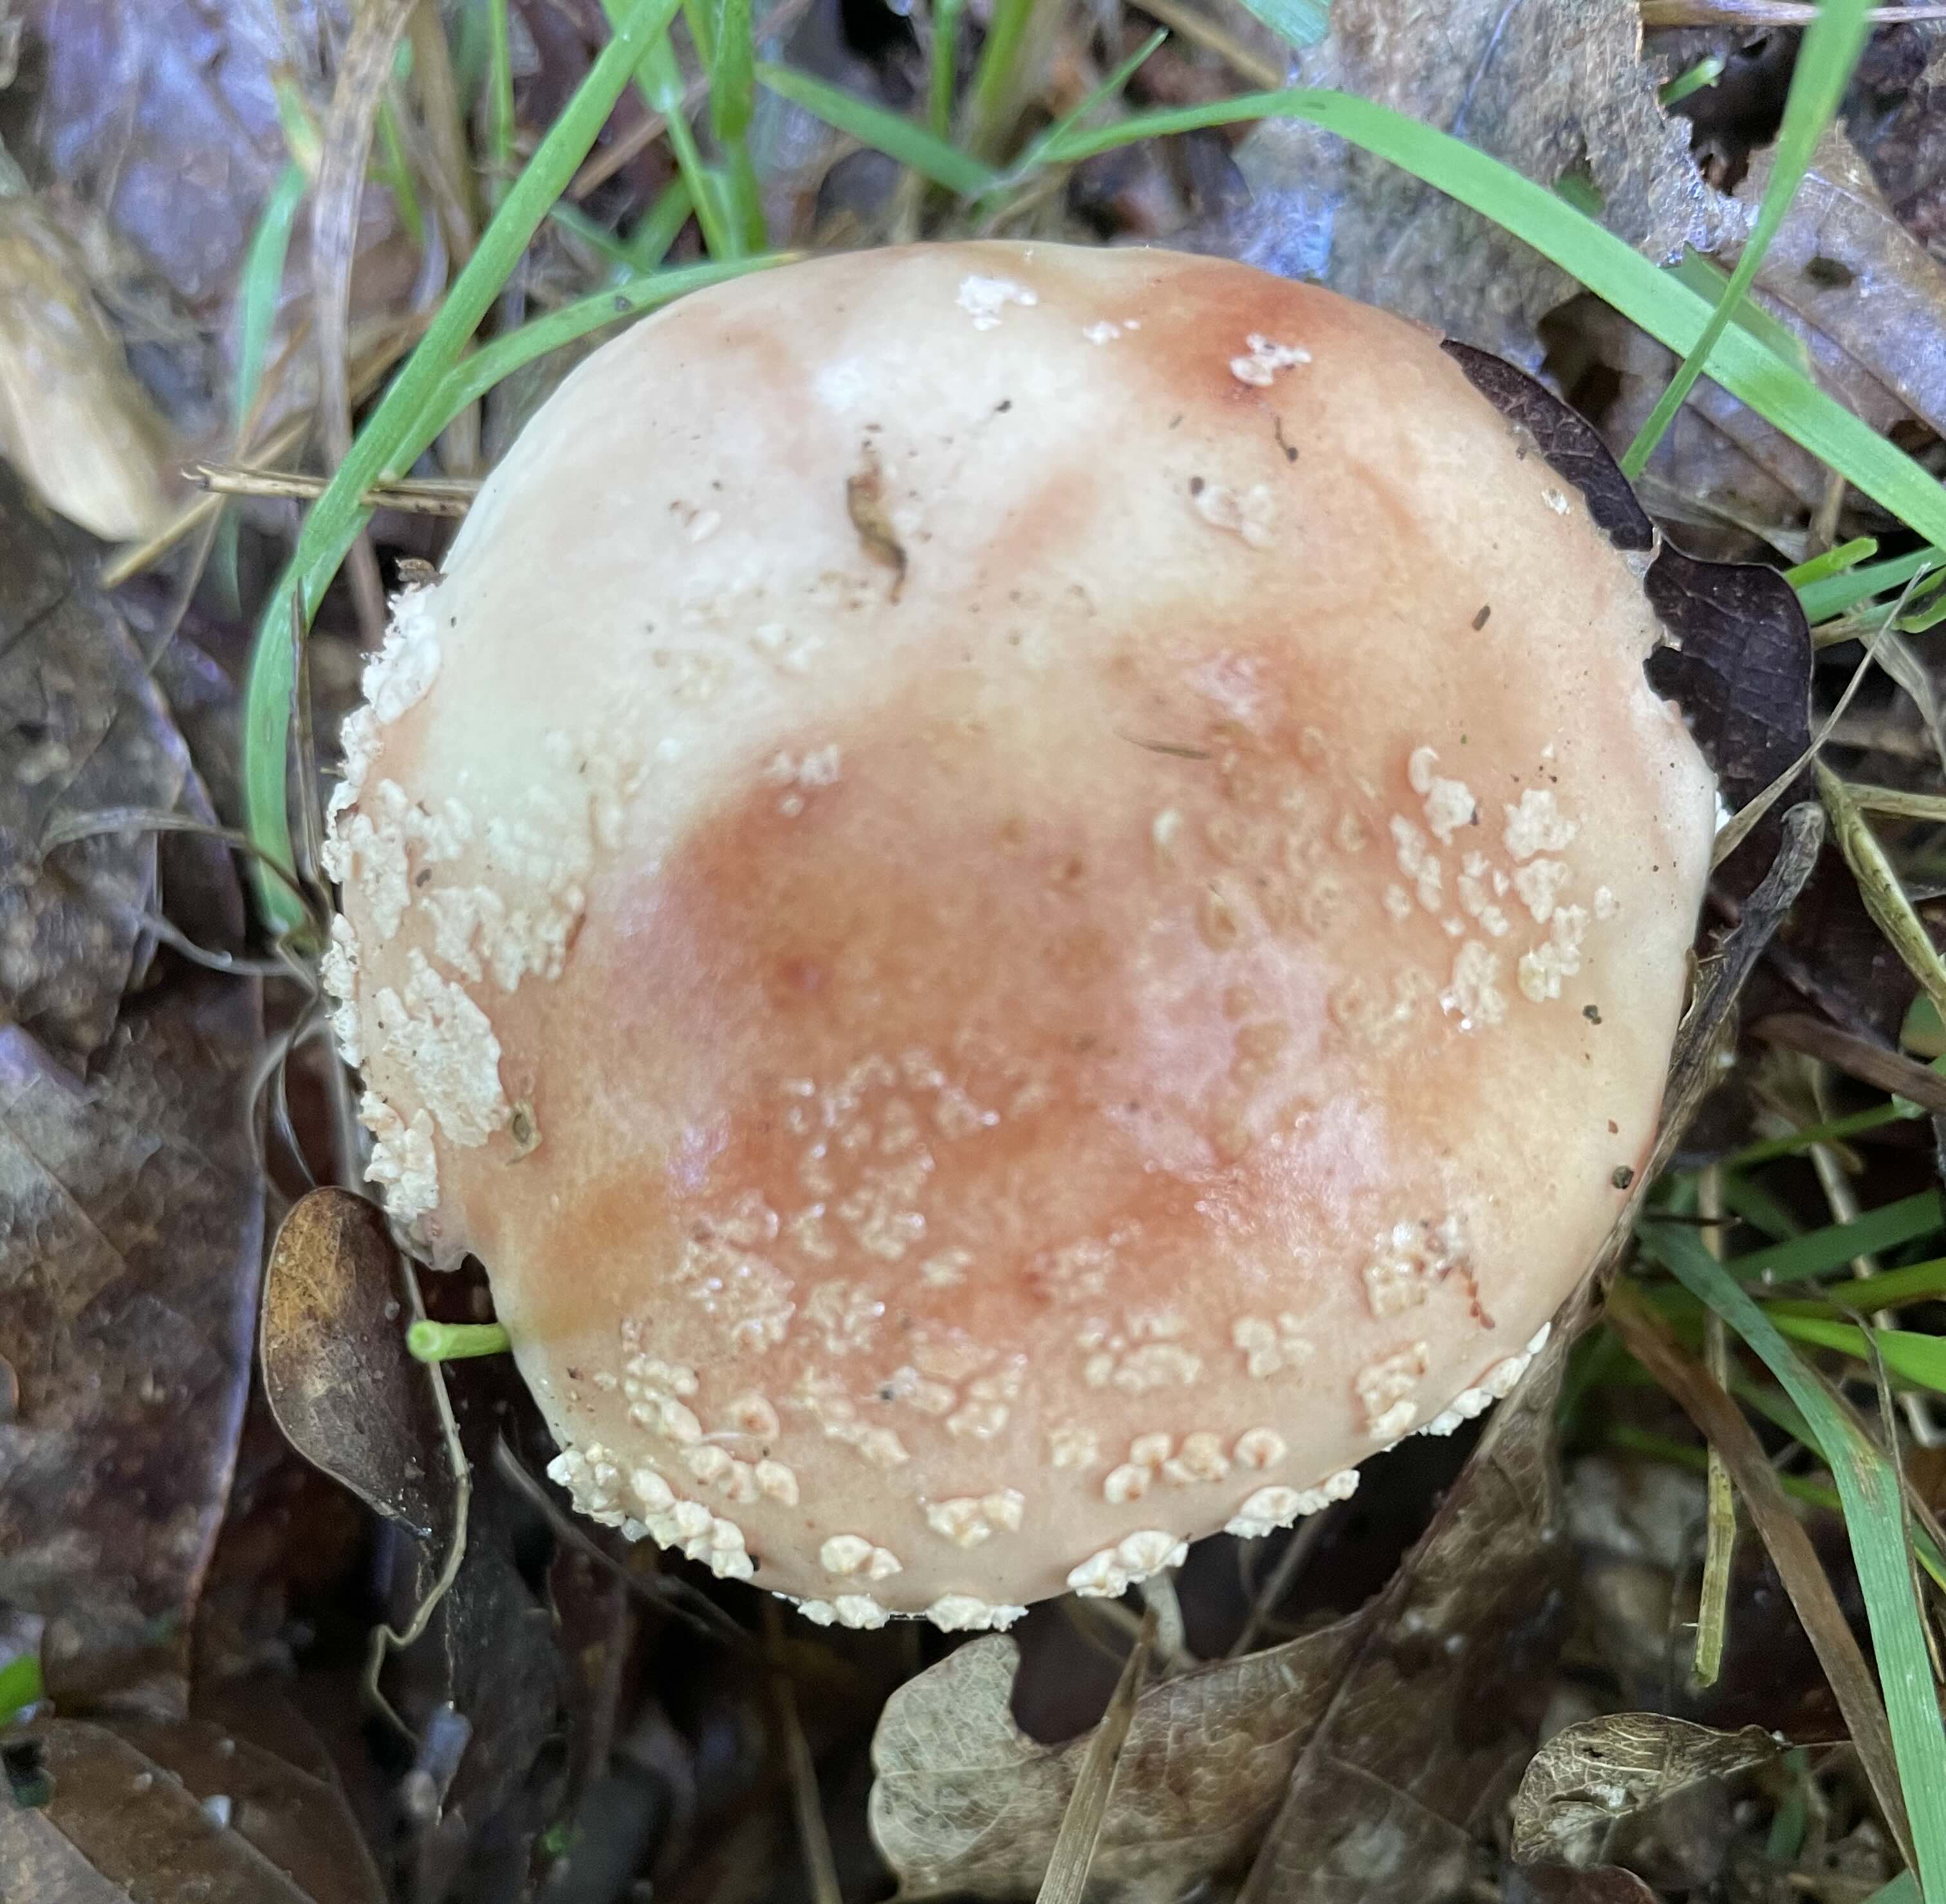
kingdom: Fungi
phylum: Basidiomycota
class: Agaricomycetes
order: Agaricales
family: Amanitaceae
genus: Amanita
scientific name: Amanita rubescens
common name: rødmende fluesvamp
